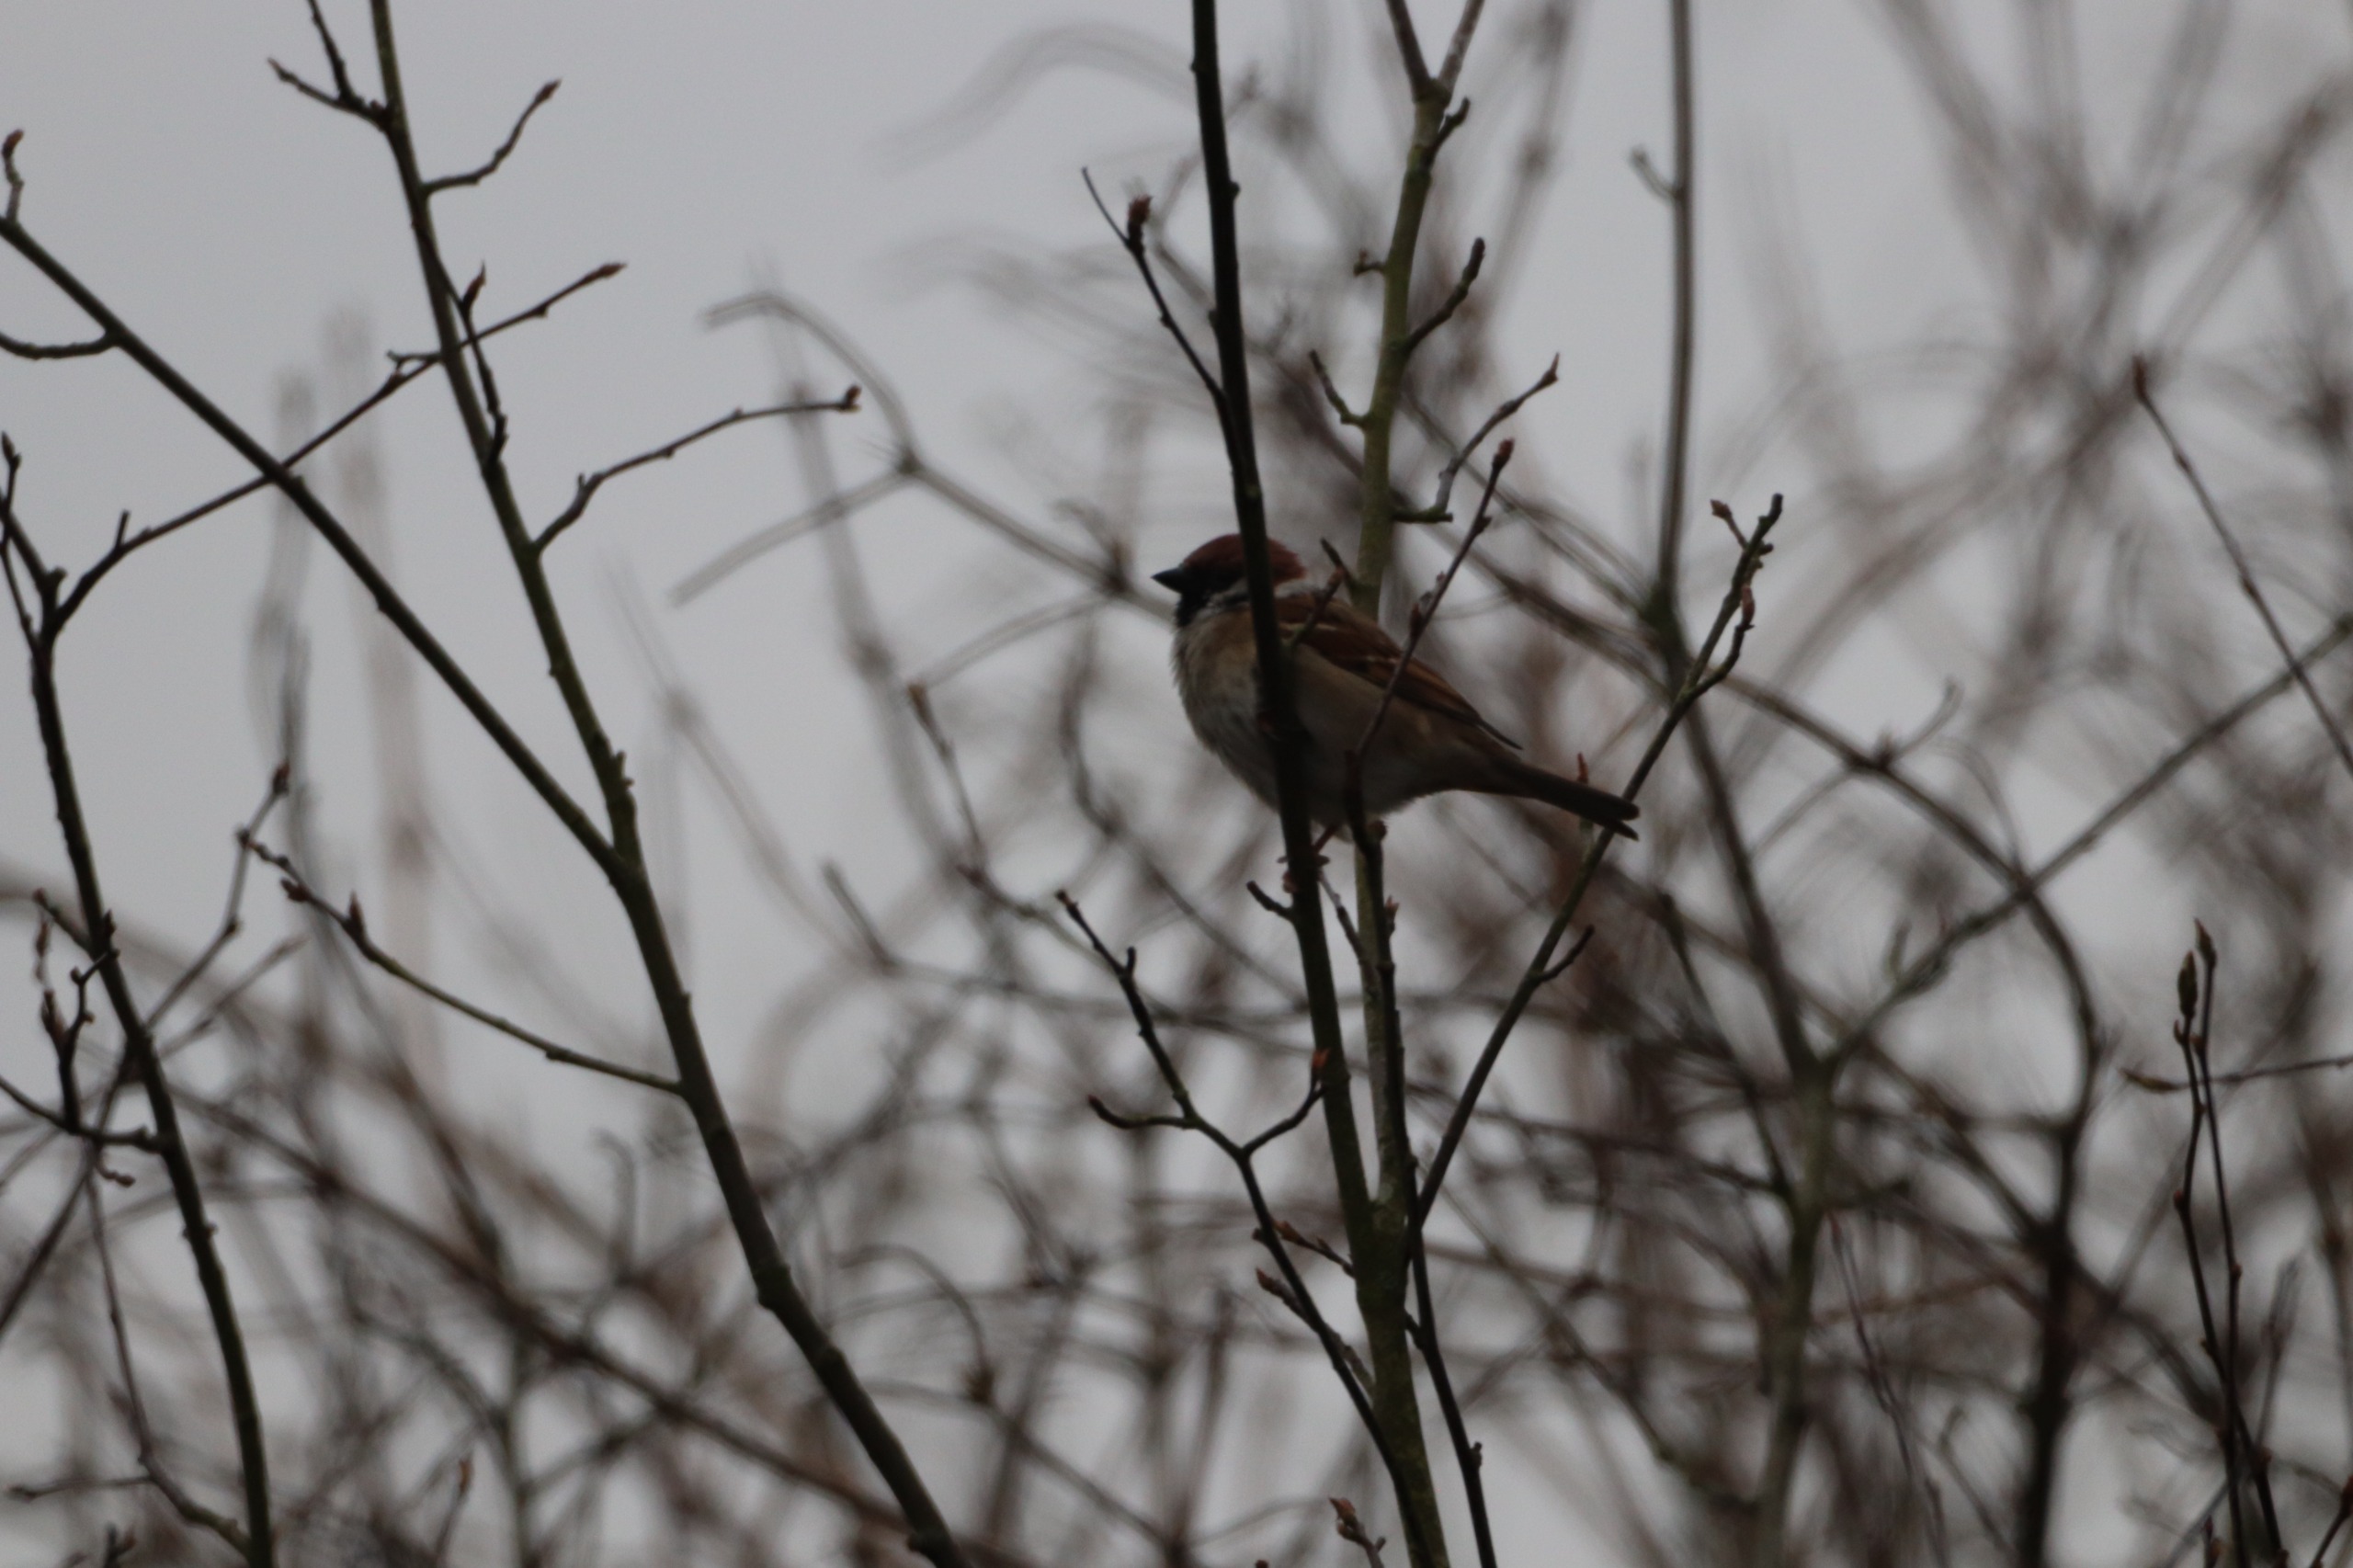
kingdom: Animalia
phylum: Chordata
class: Aves
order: Passeriformes
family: Passeridae
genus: Passer
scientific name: Passer montanus
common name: Skovspurv
